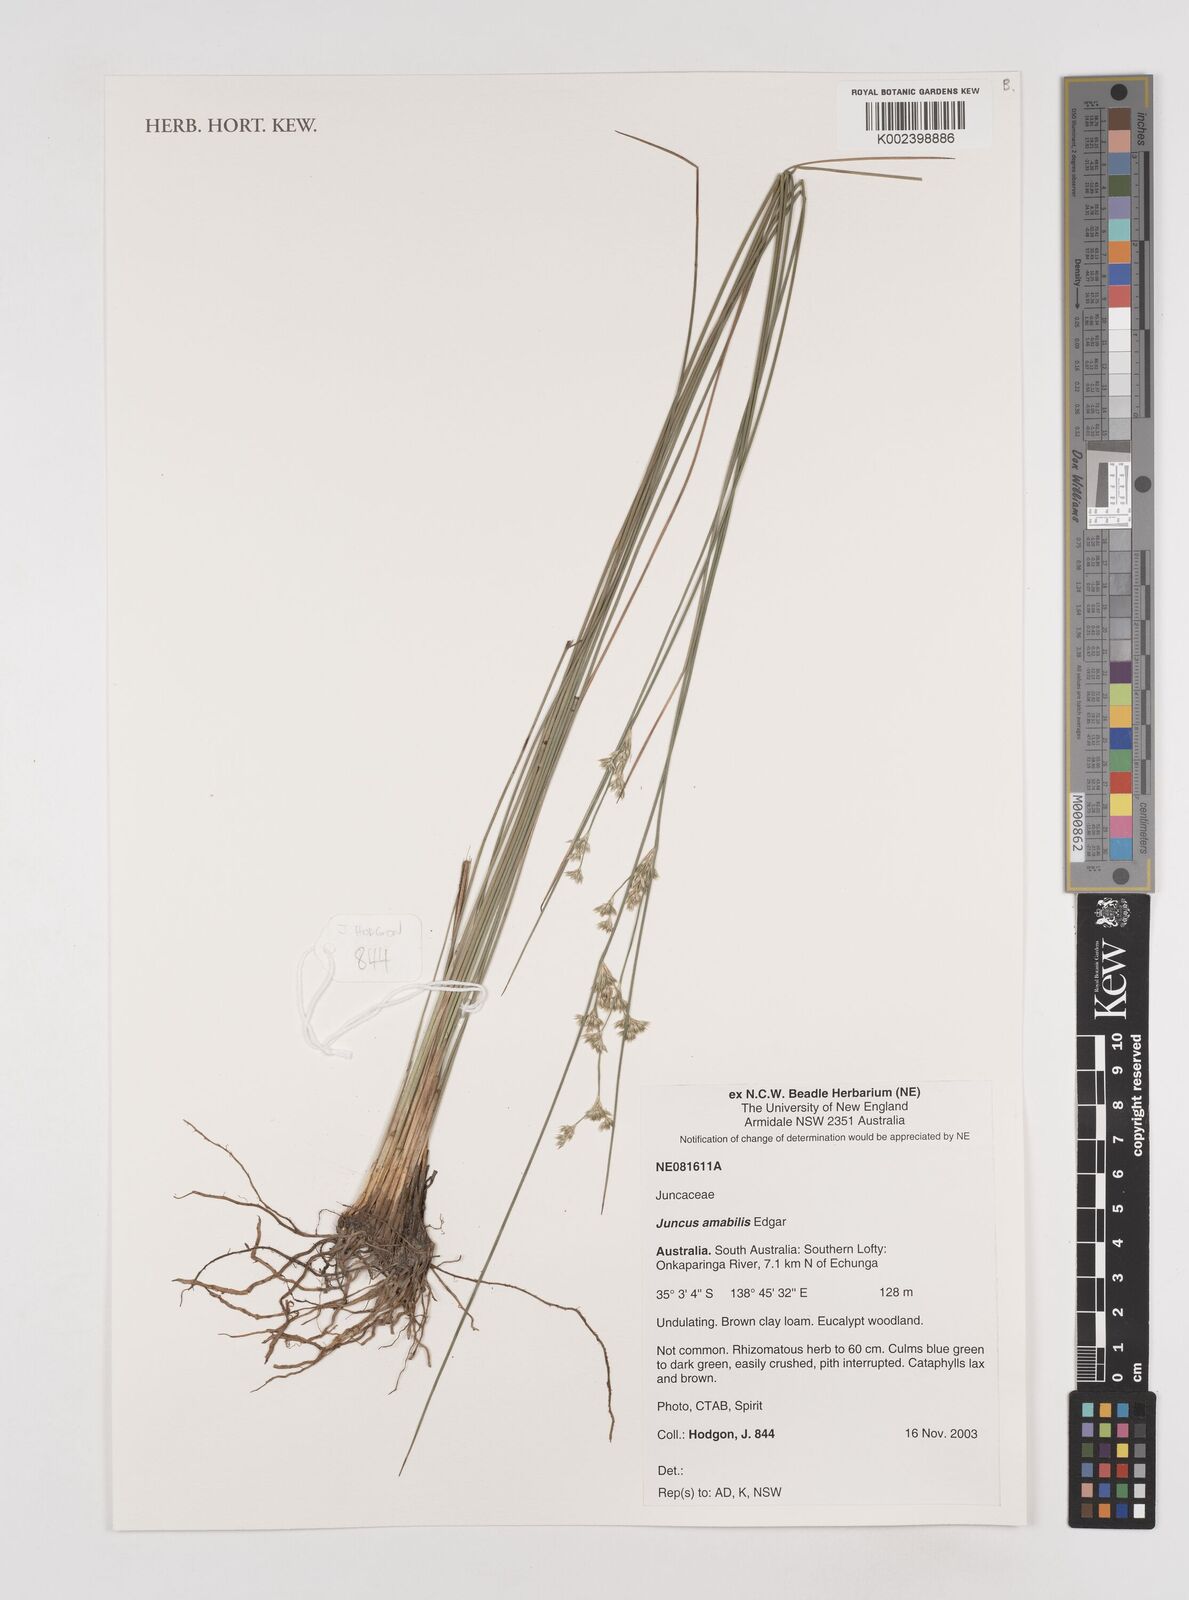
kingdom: Plantae
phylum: Tracheophyta
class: Liliopsida
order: Poales
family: Juncaceae
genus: Juncus
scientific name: Juncus amabilis
